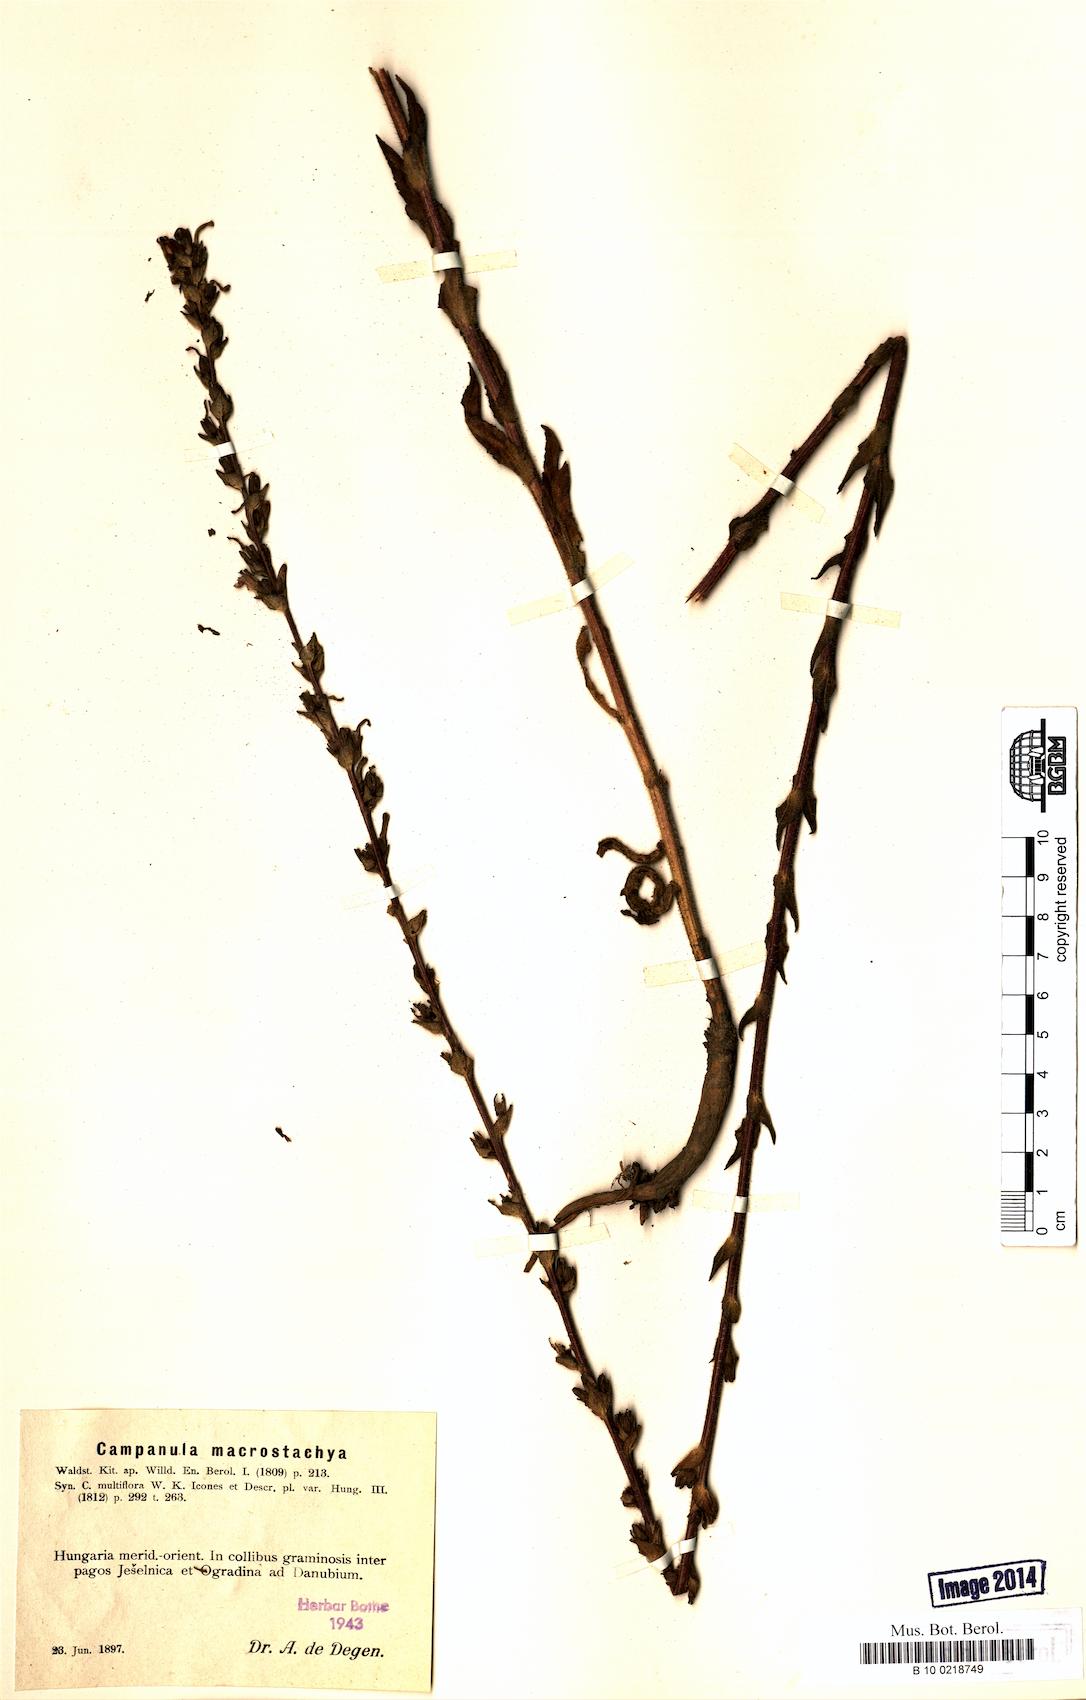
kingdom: Plantae
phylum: Tracheophyta
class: Magnoliopsida
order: Asterales
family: Campanulaceae
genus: Campanula
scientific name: Campanula macrostachya
